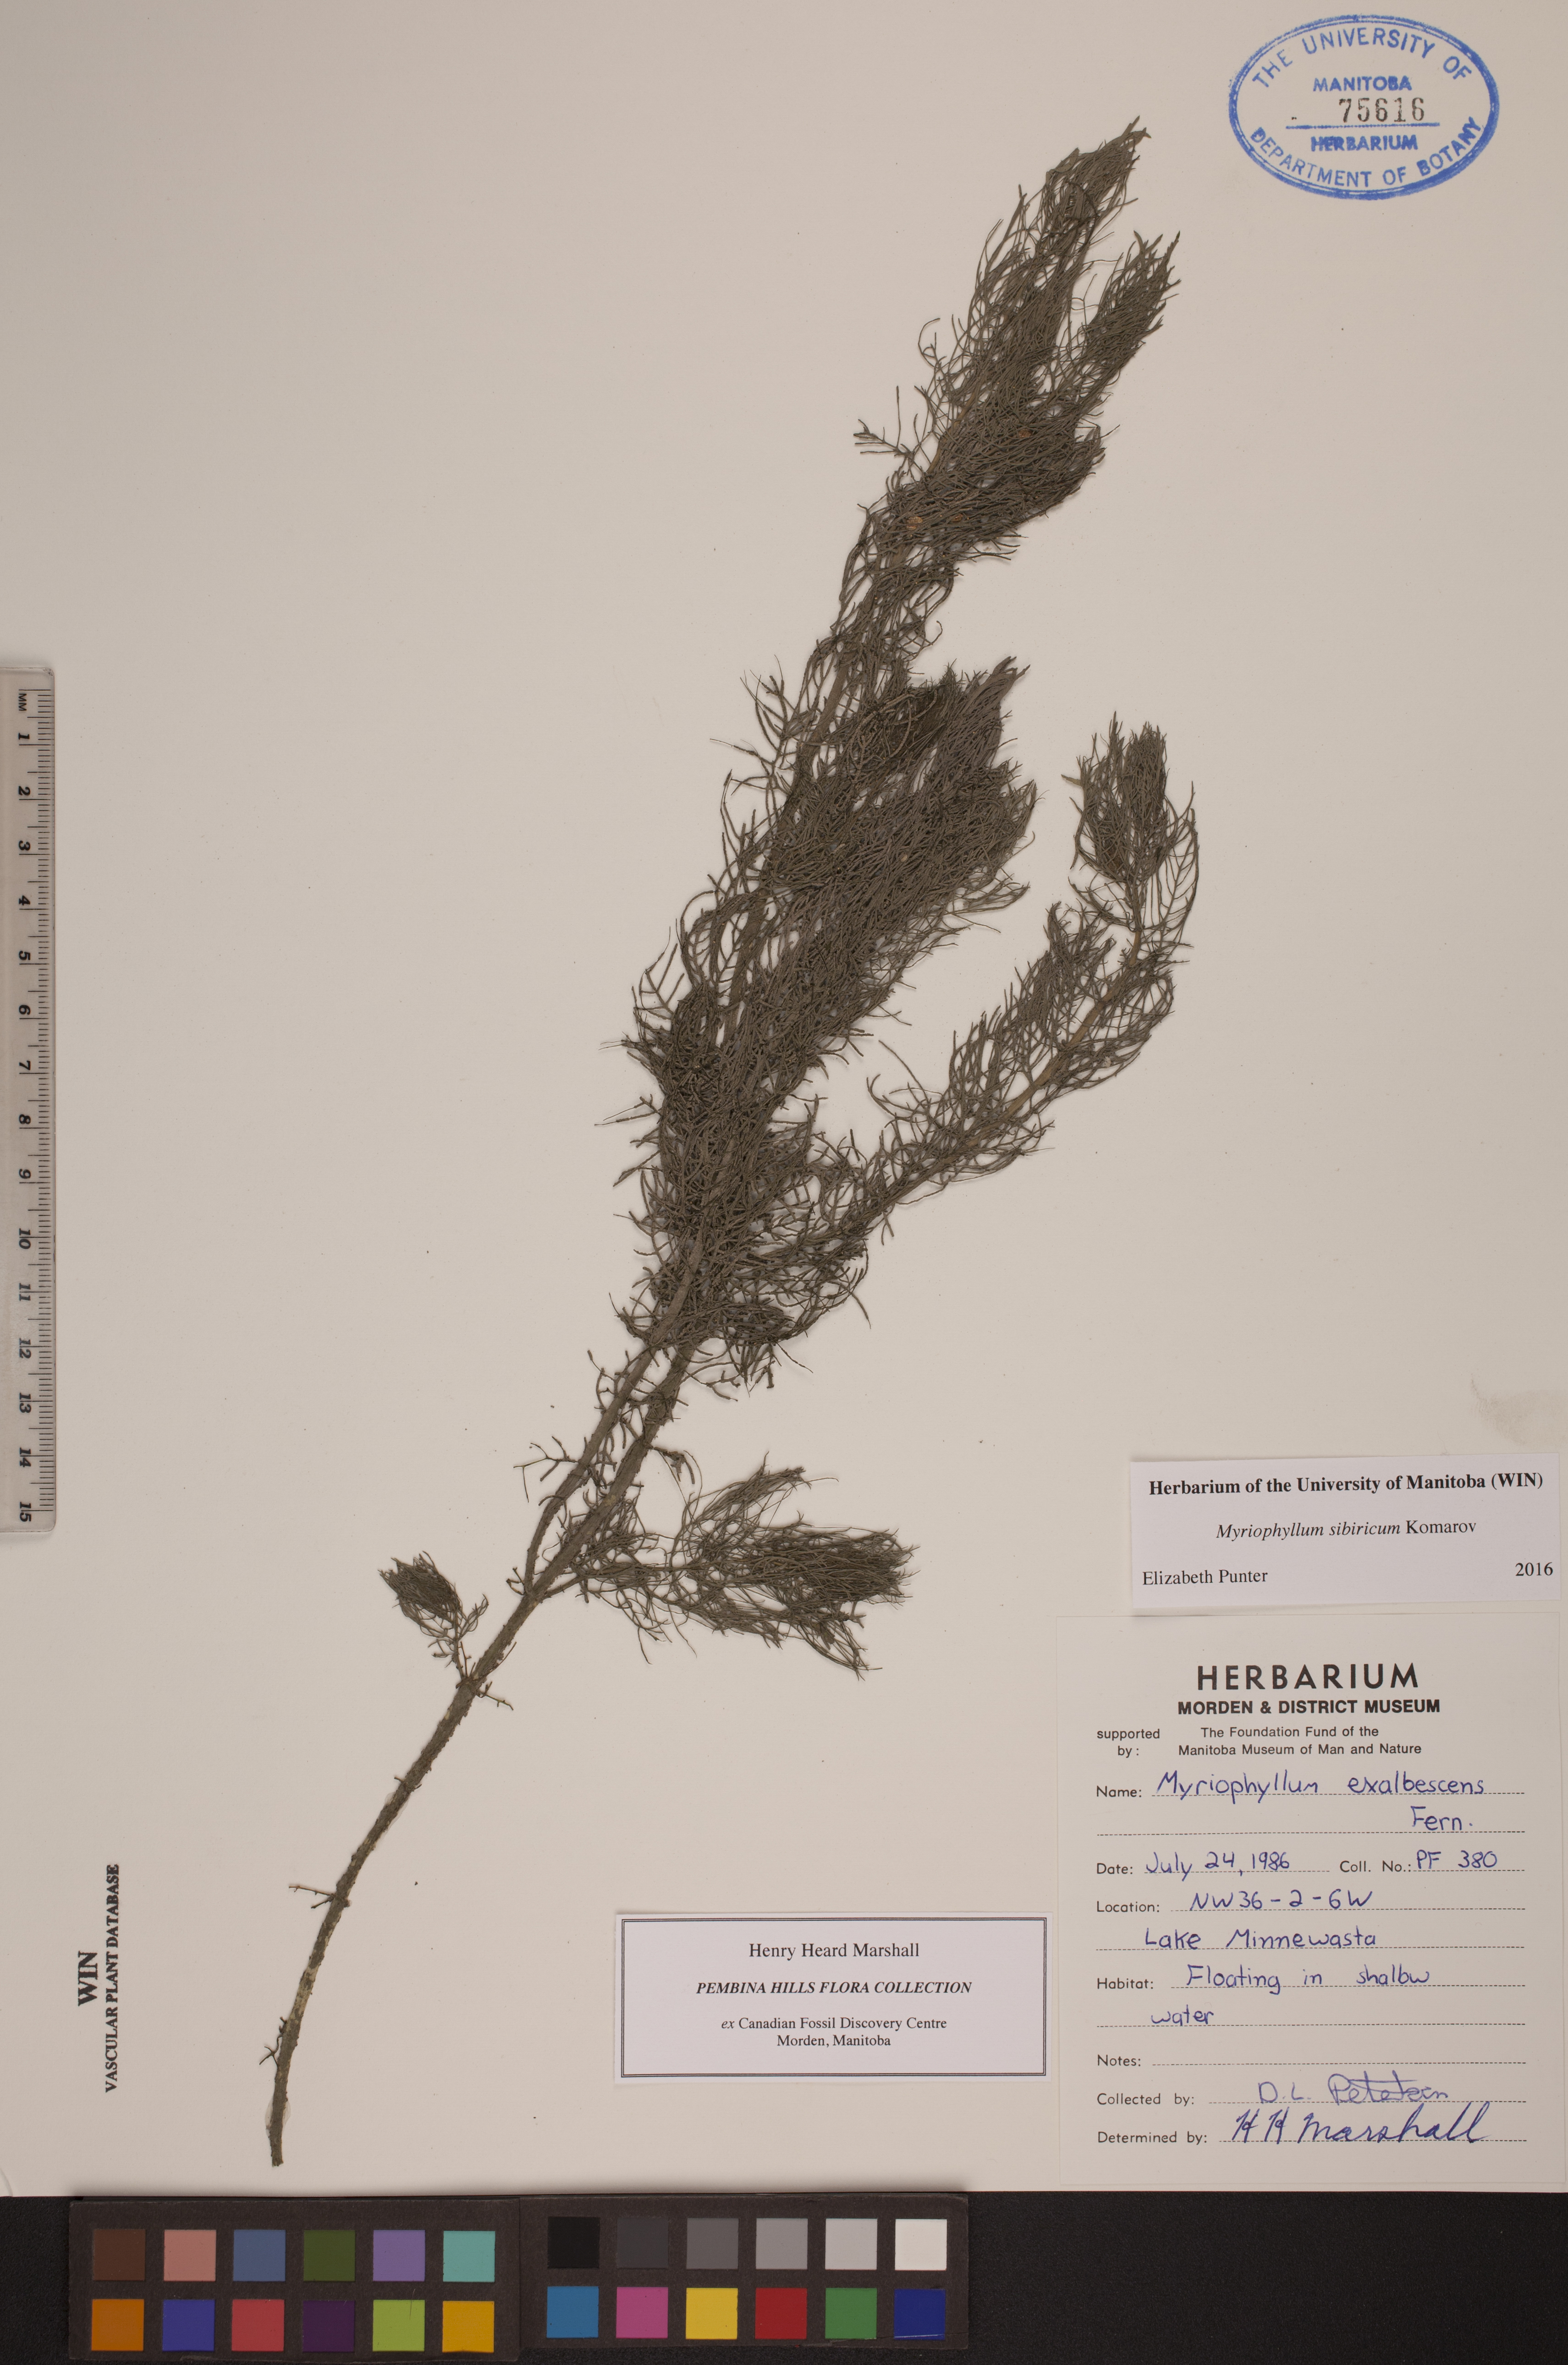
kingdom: Plantae
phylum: Tracheophyta
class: Magnoliopsida
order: Saxifragales
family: Haloragaceae
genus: Myriophyllum
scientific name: Myriophyllum sibiricum
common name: Siberian water-milfoil
